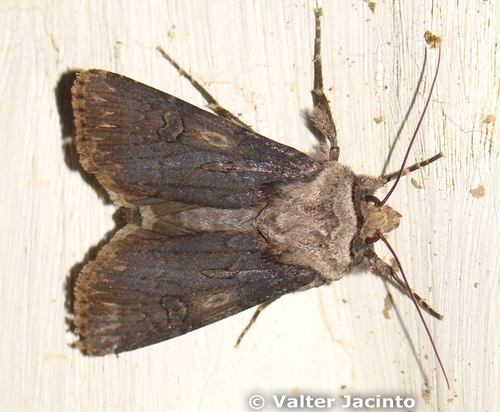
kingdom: Animalia
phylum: Arthropoda
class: Insecta
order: Lepidoptera
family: Noctuidae
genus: Agrotis
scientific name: Agrotis puta
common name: Shuttle-shaped dart
